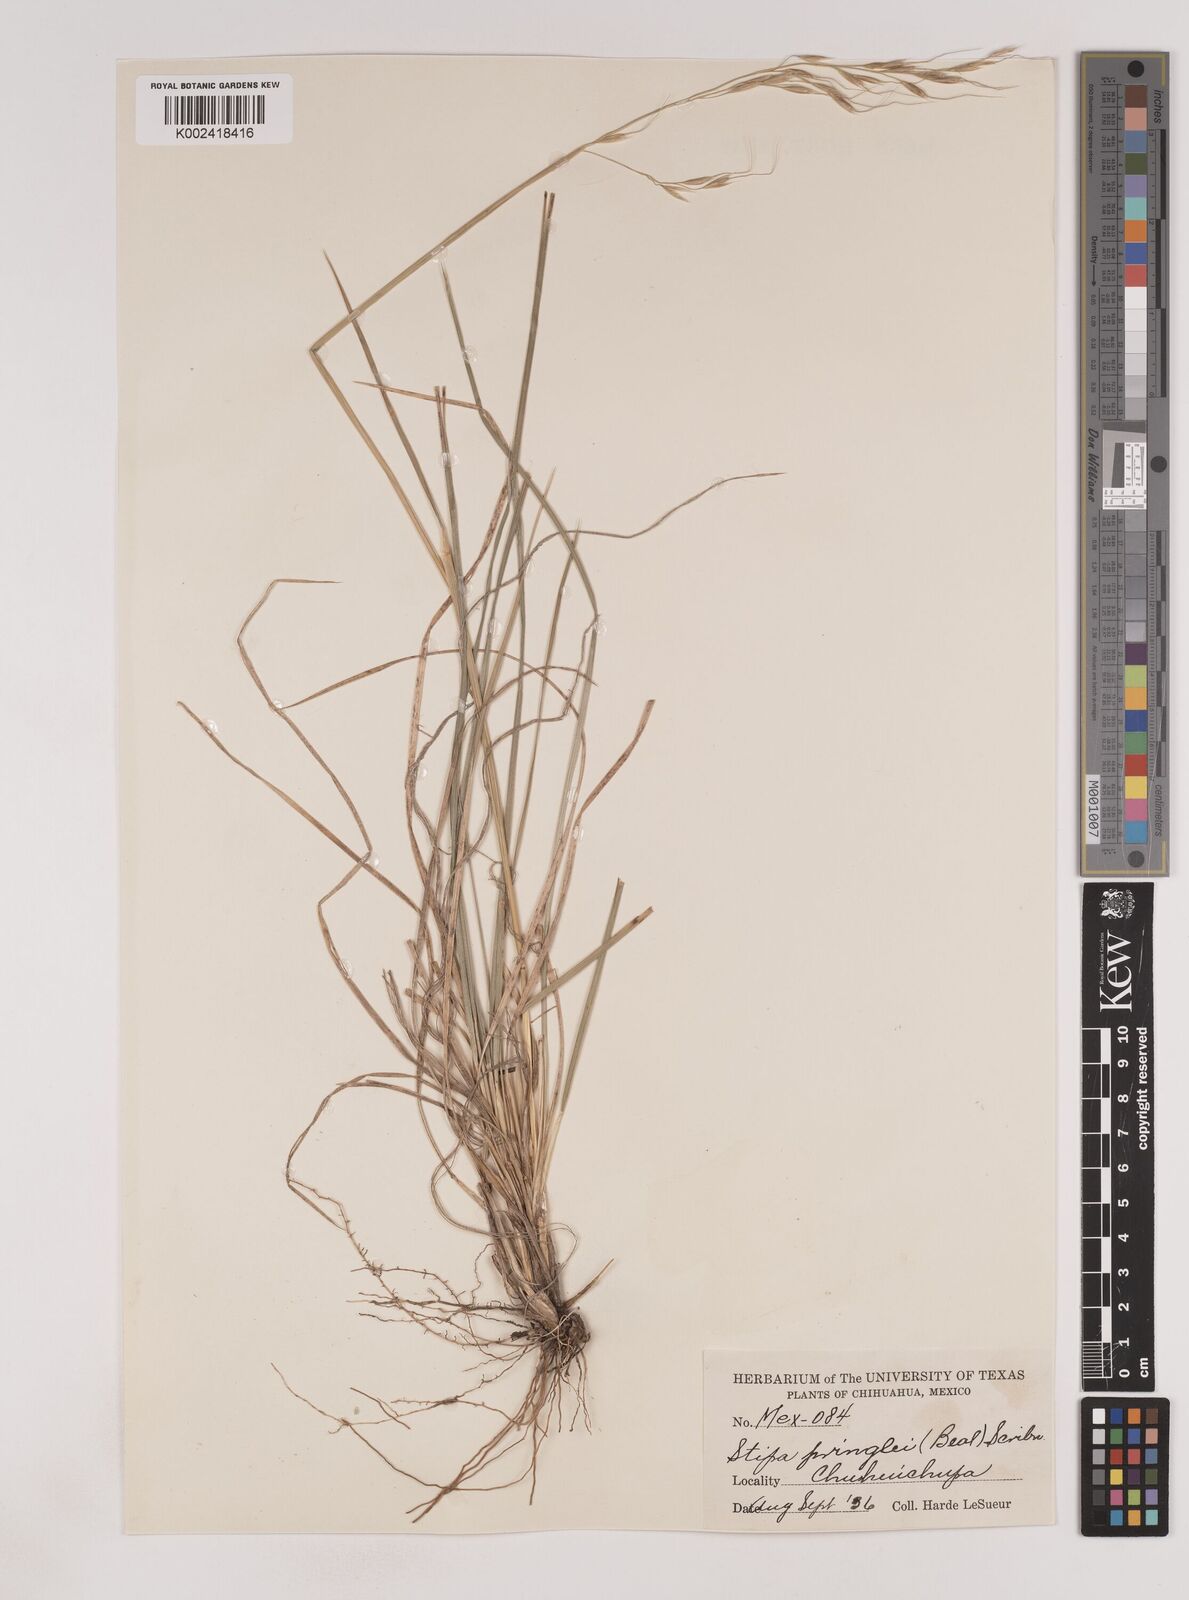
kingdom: Plantae
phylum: Tracheophyta
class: Liliopsida
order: Poales
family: Poaceae
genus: Piptochaetium
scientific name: Piptochaetium pringlei
